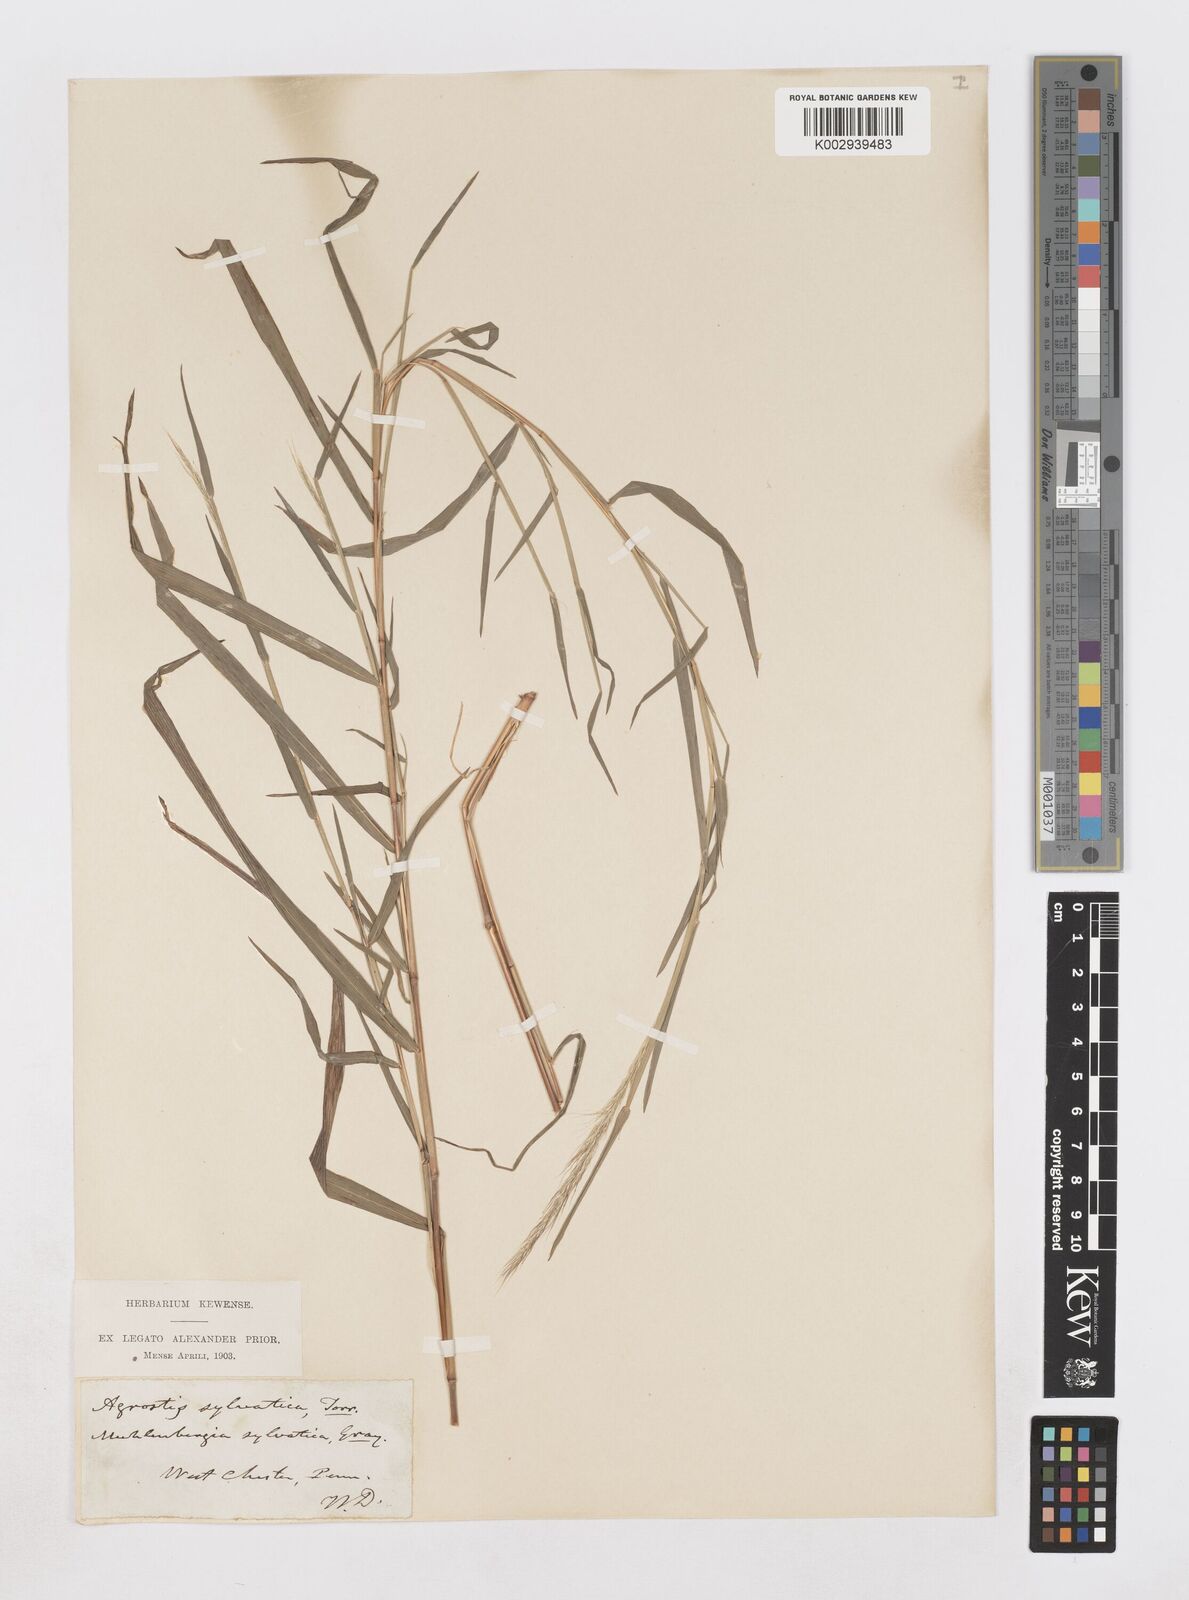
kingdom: Plantae
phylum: Tracheophyta
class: Liliopsida
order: Poales
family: Poaceae
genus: Muhlenbergia
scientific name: Muhlenbergia sylvatica
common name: Woodland muhly
